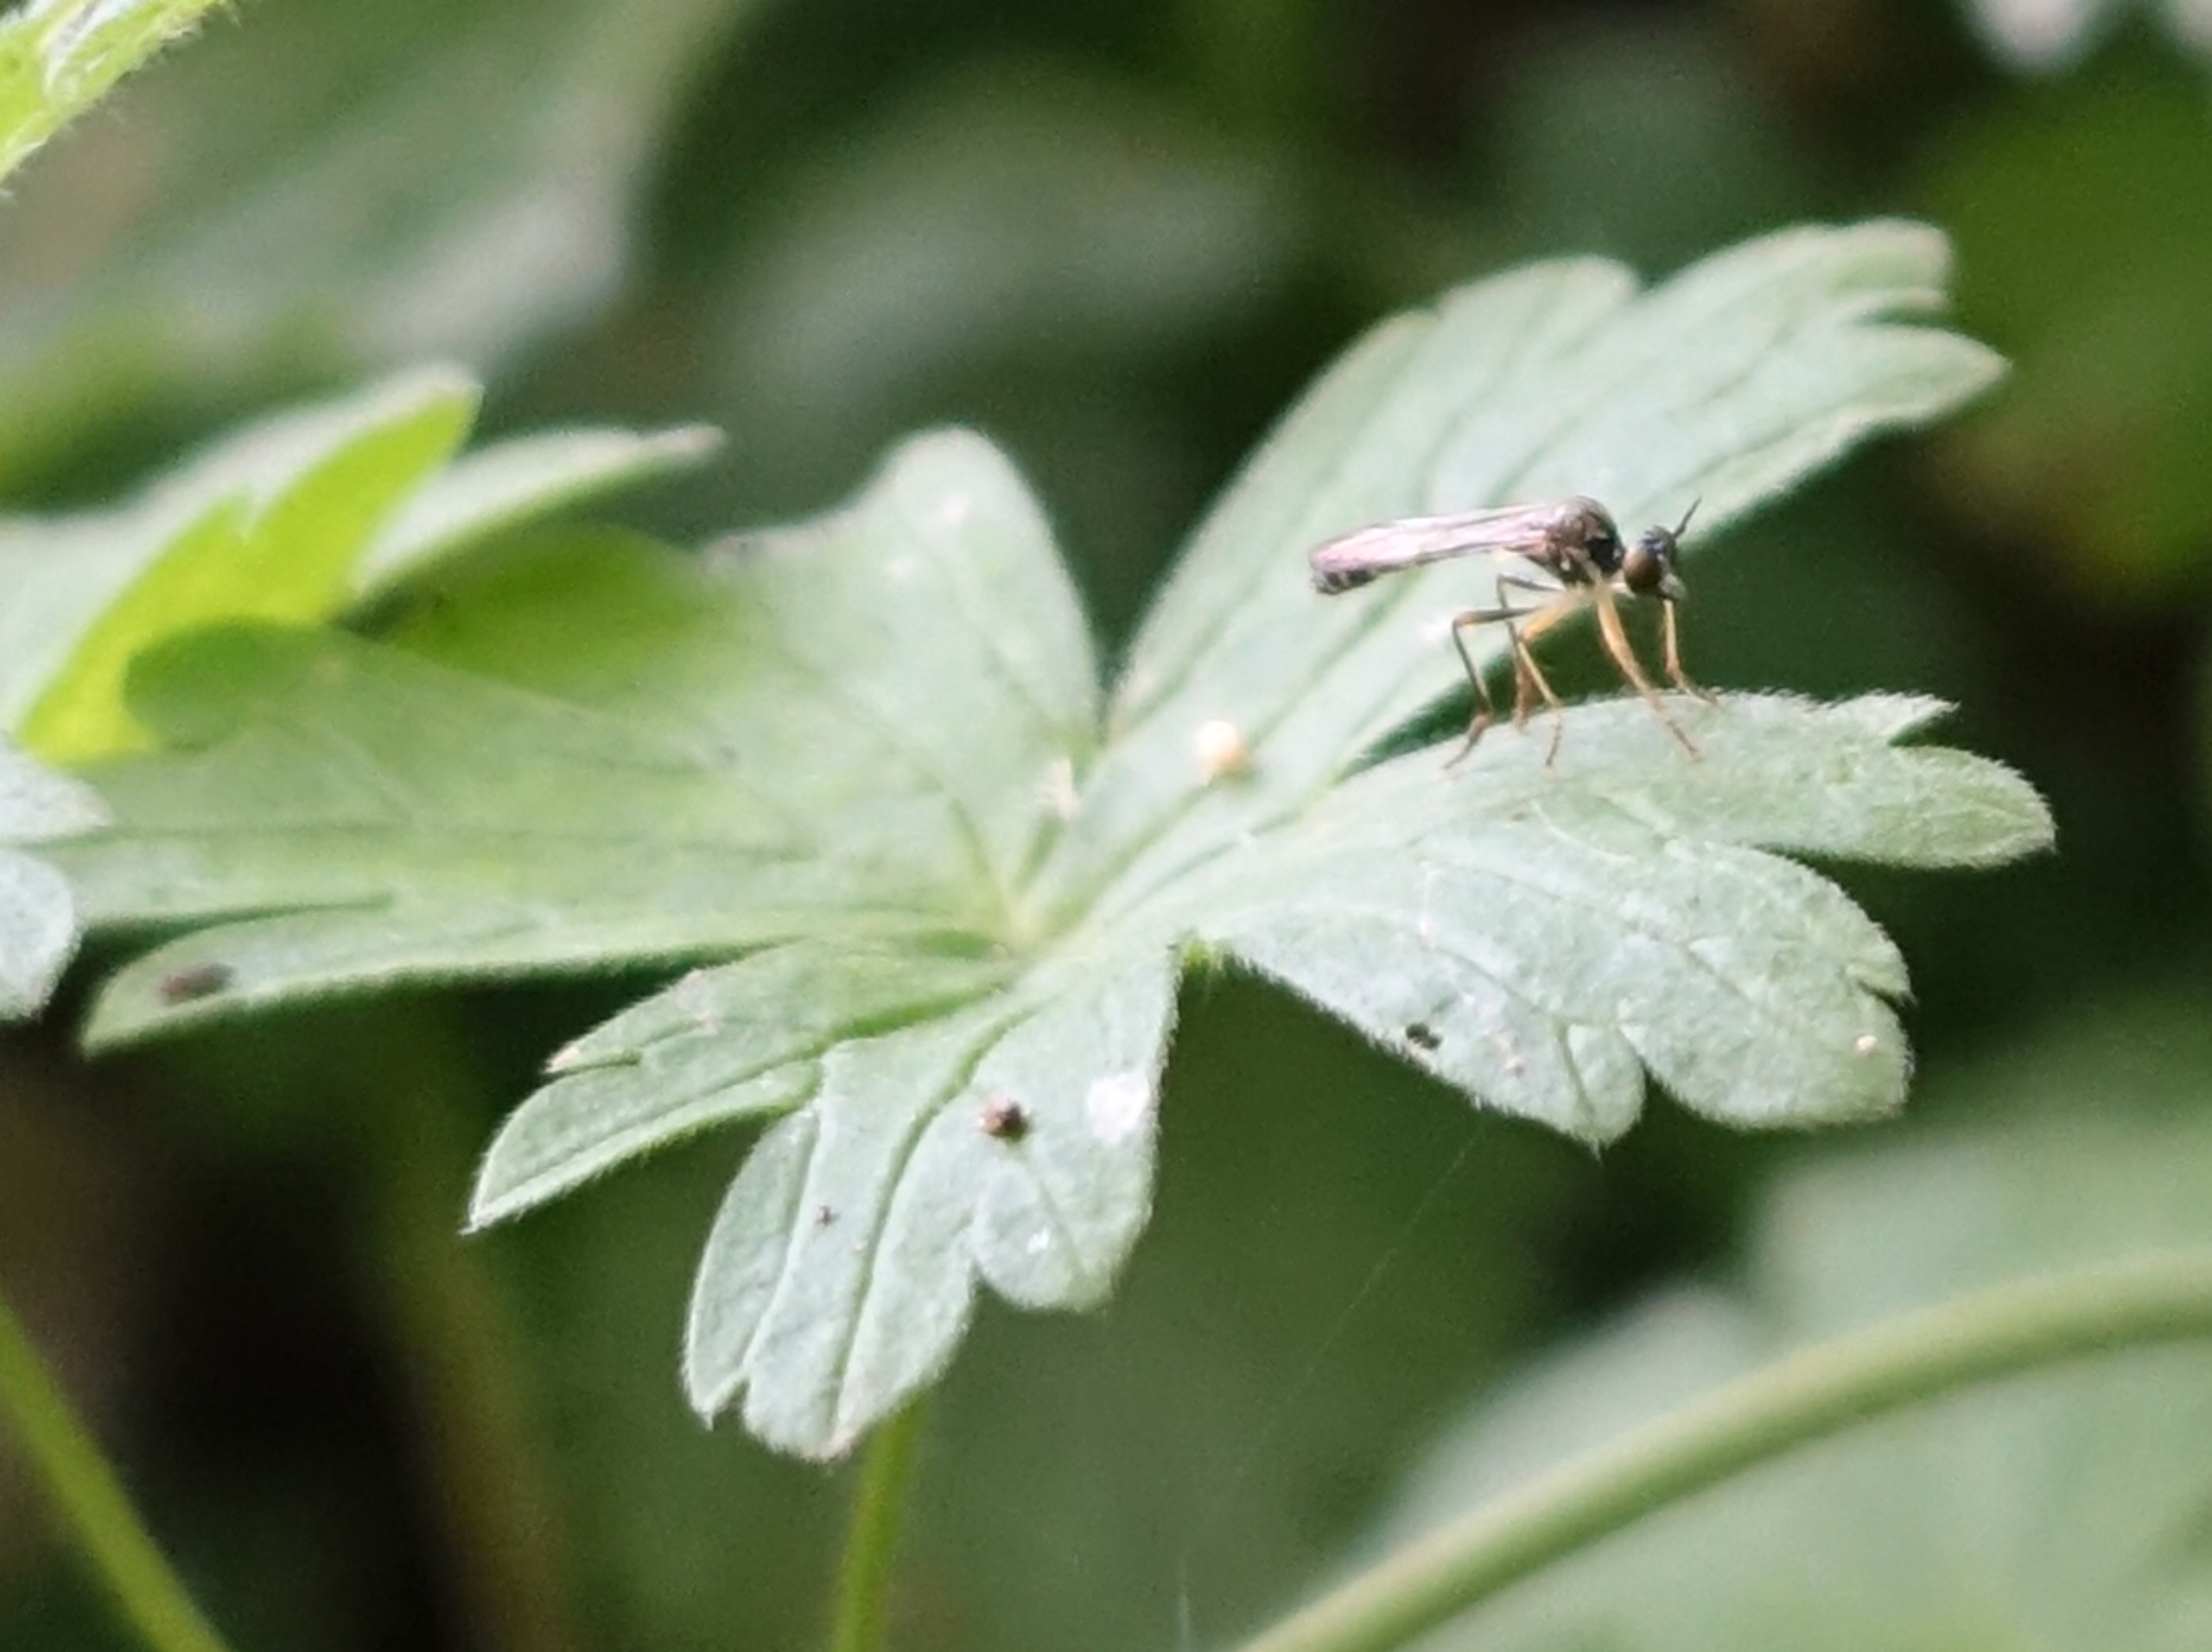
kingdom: Animalia
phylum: Arthropoda
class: Insecta
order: Diptera
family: Asilidae
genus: Dioctria
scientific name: Dioctria linearis
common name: Blegbenet rovflue
